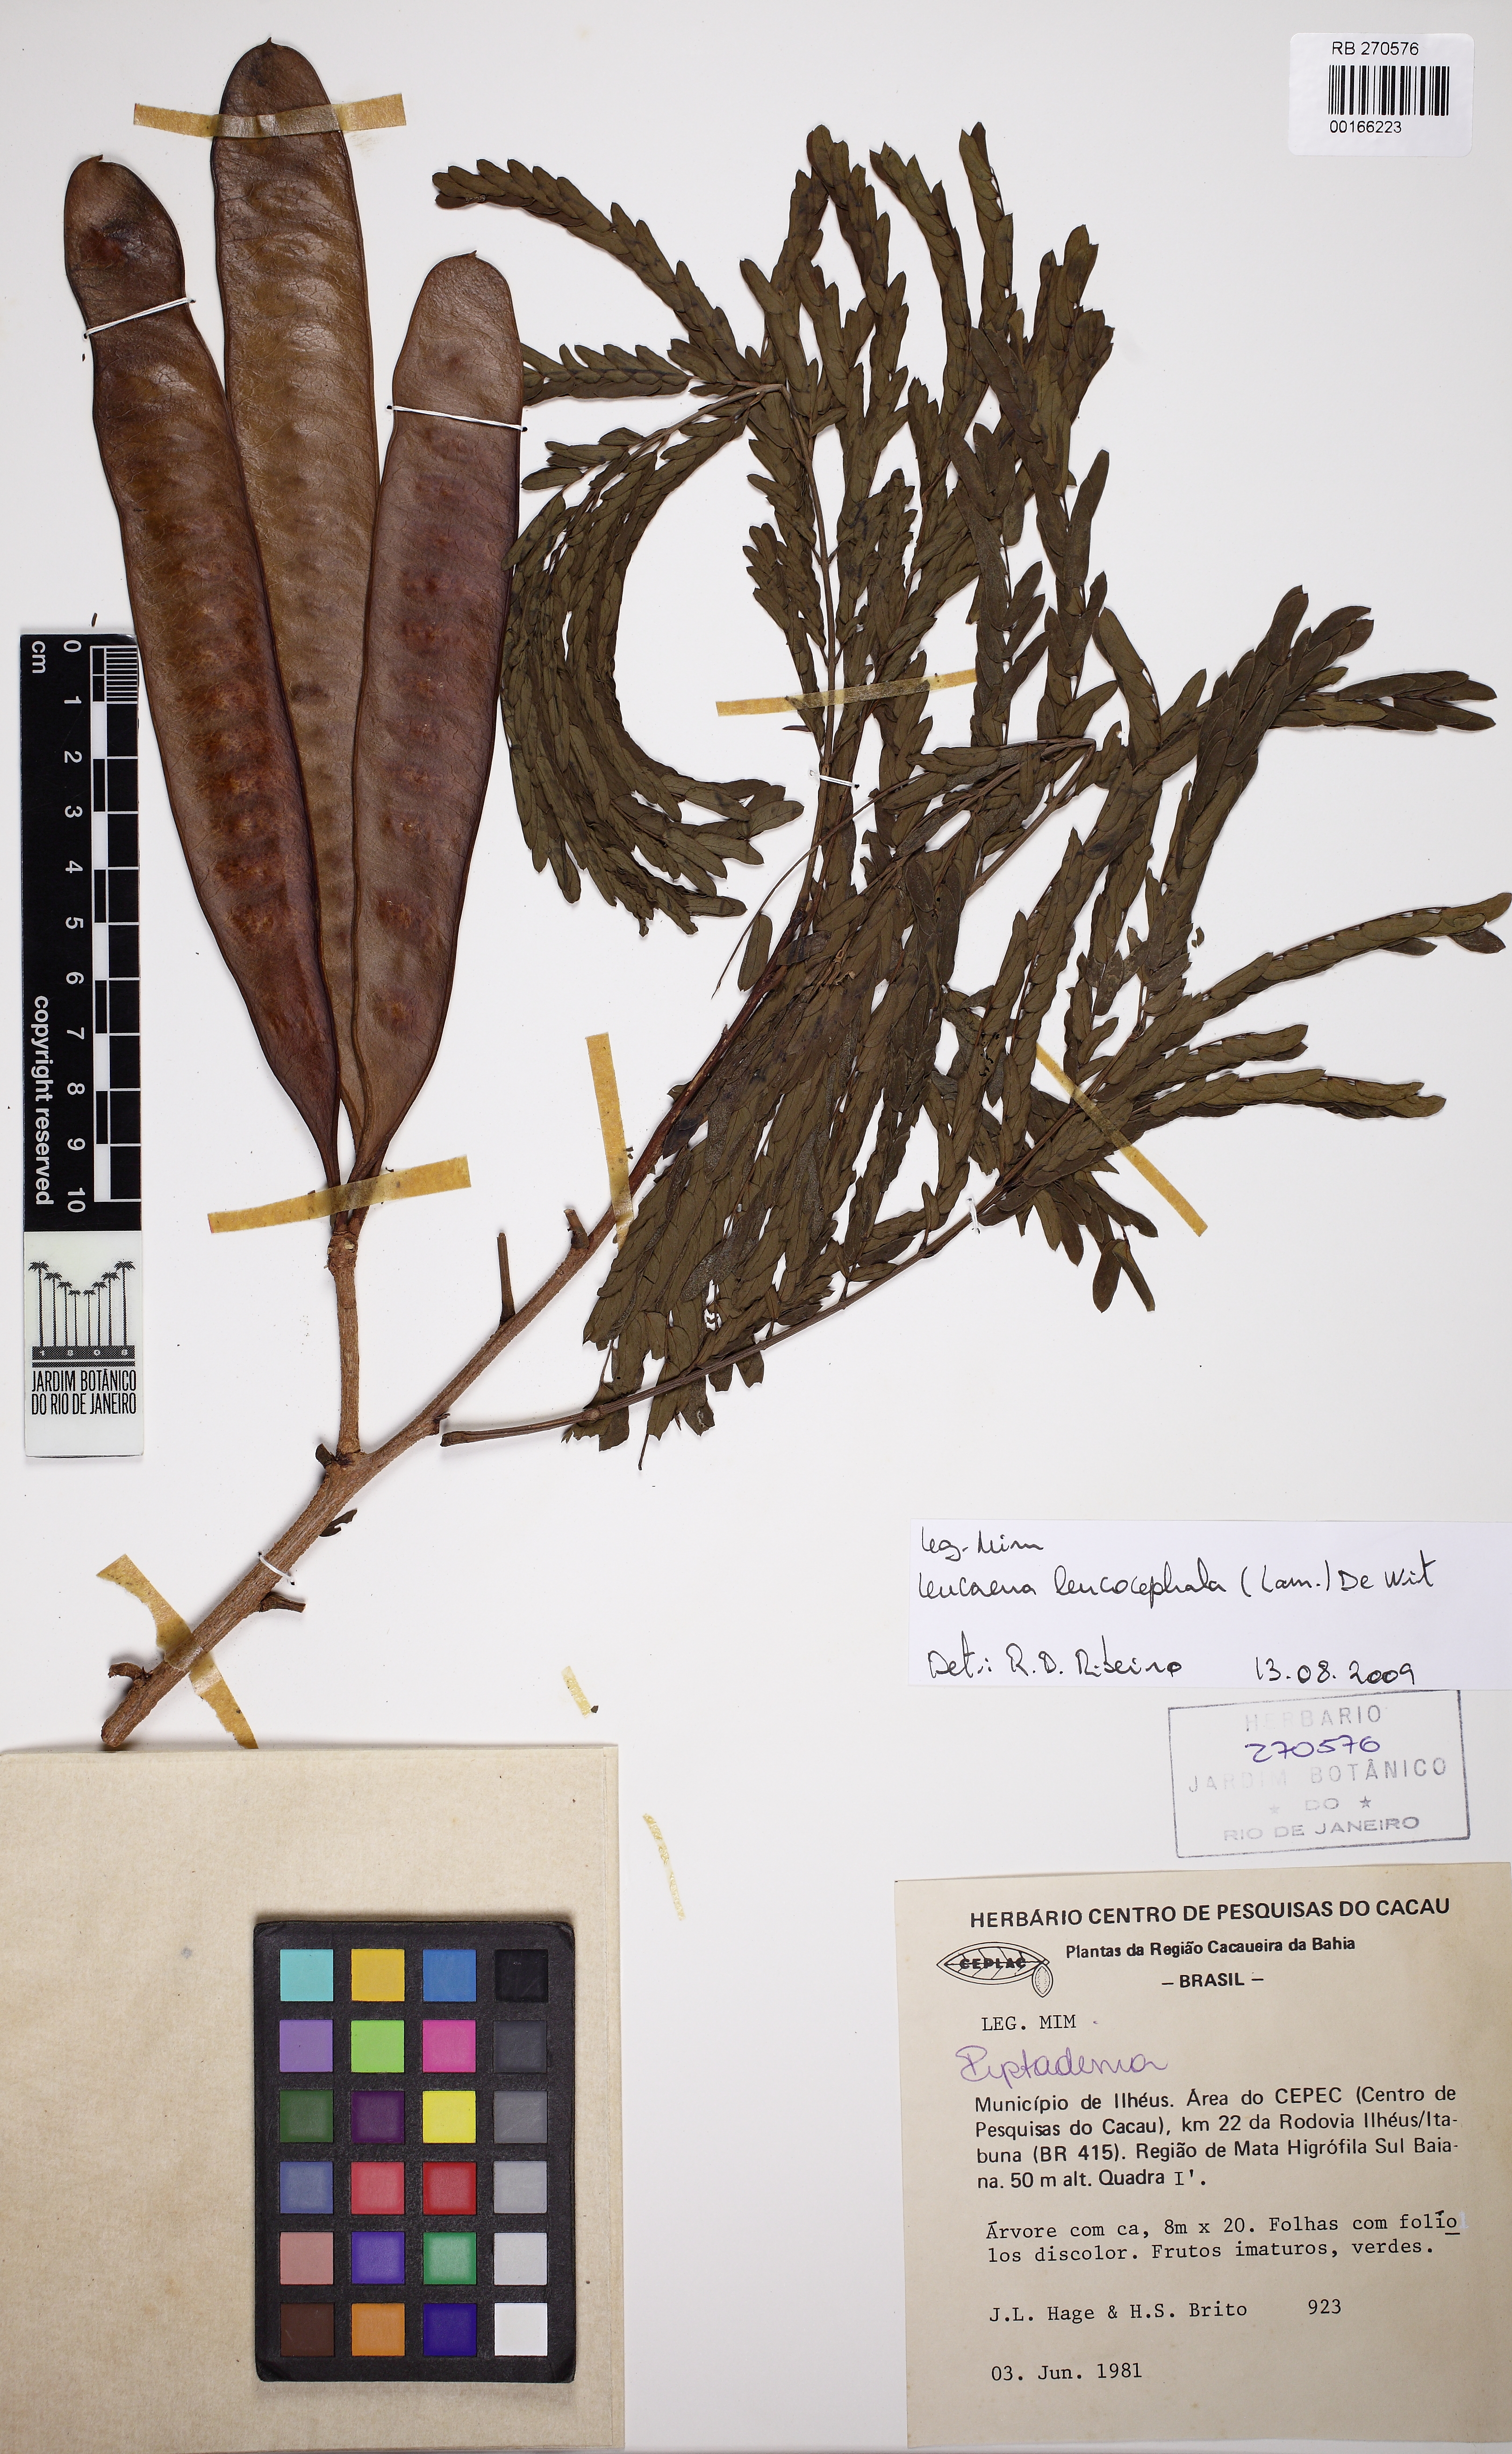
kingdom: Plantae
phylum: Tracheophyta
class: Magnoliopsida
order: Fabales
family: Fabaceae
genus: Pseudopiptadenia
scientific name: Pseudopiptadenia
